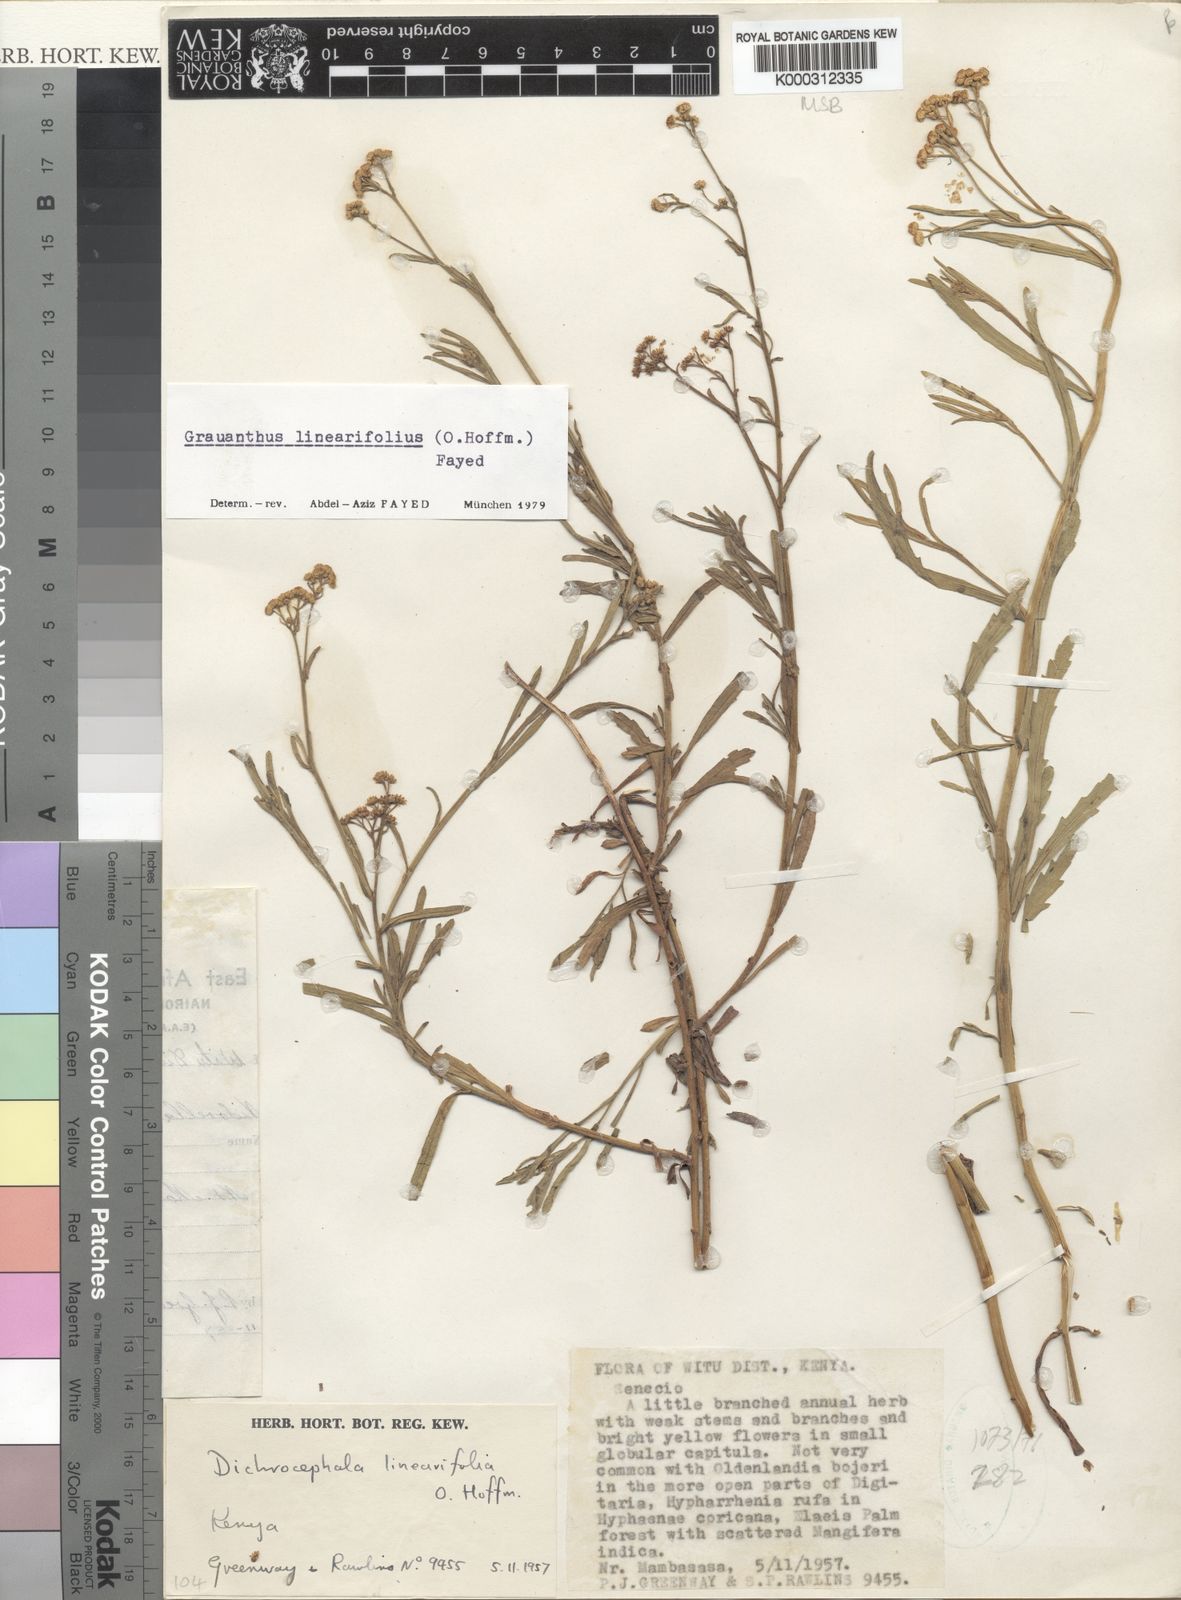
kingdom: Plantae
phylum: Tracheophyta
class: Magnoliopsida
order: Asterales
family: Asteraceae
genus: Grauanthus
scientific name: Grauanthus linearifolius
